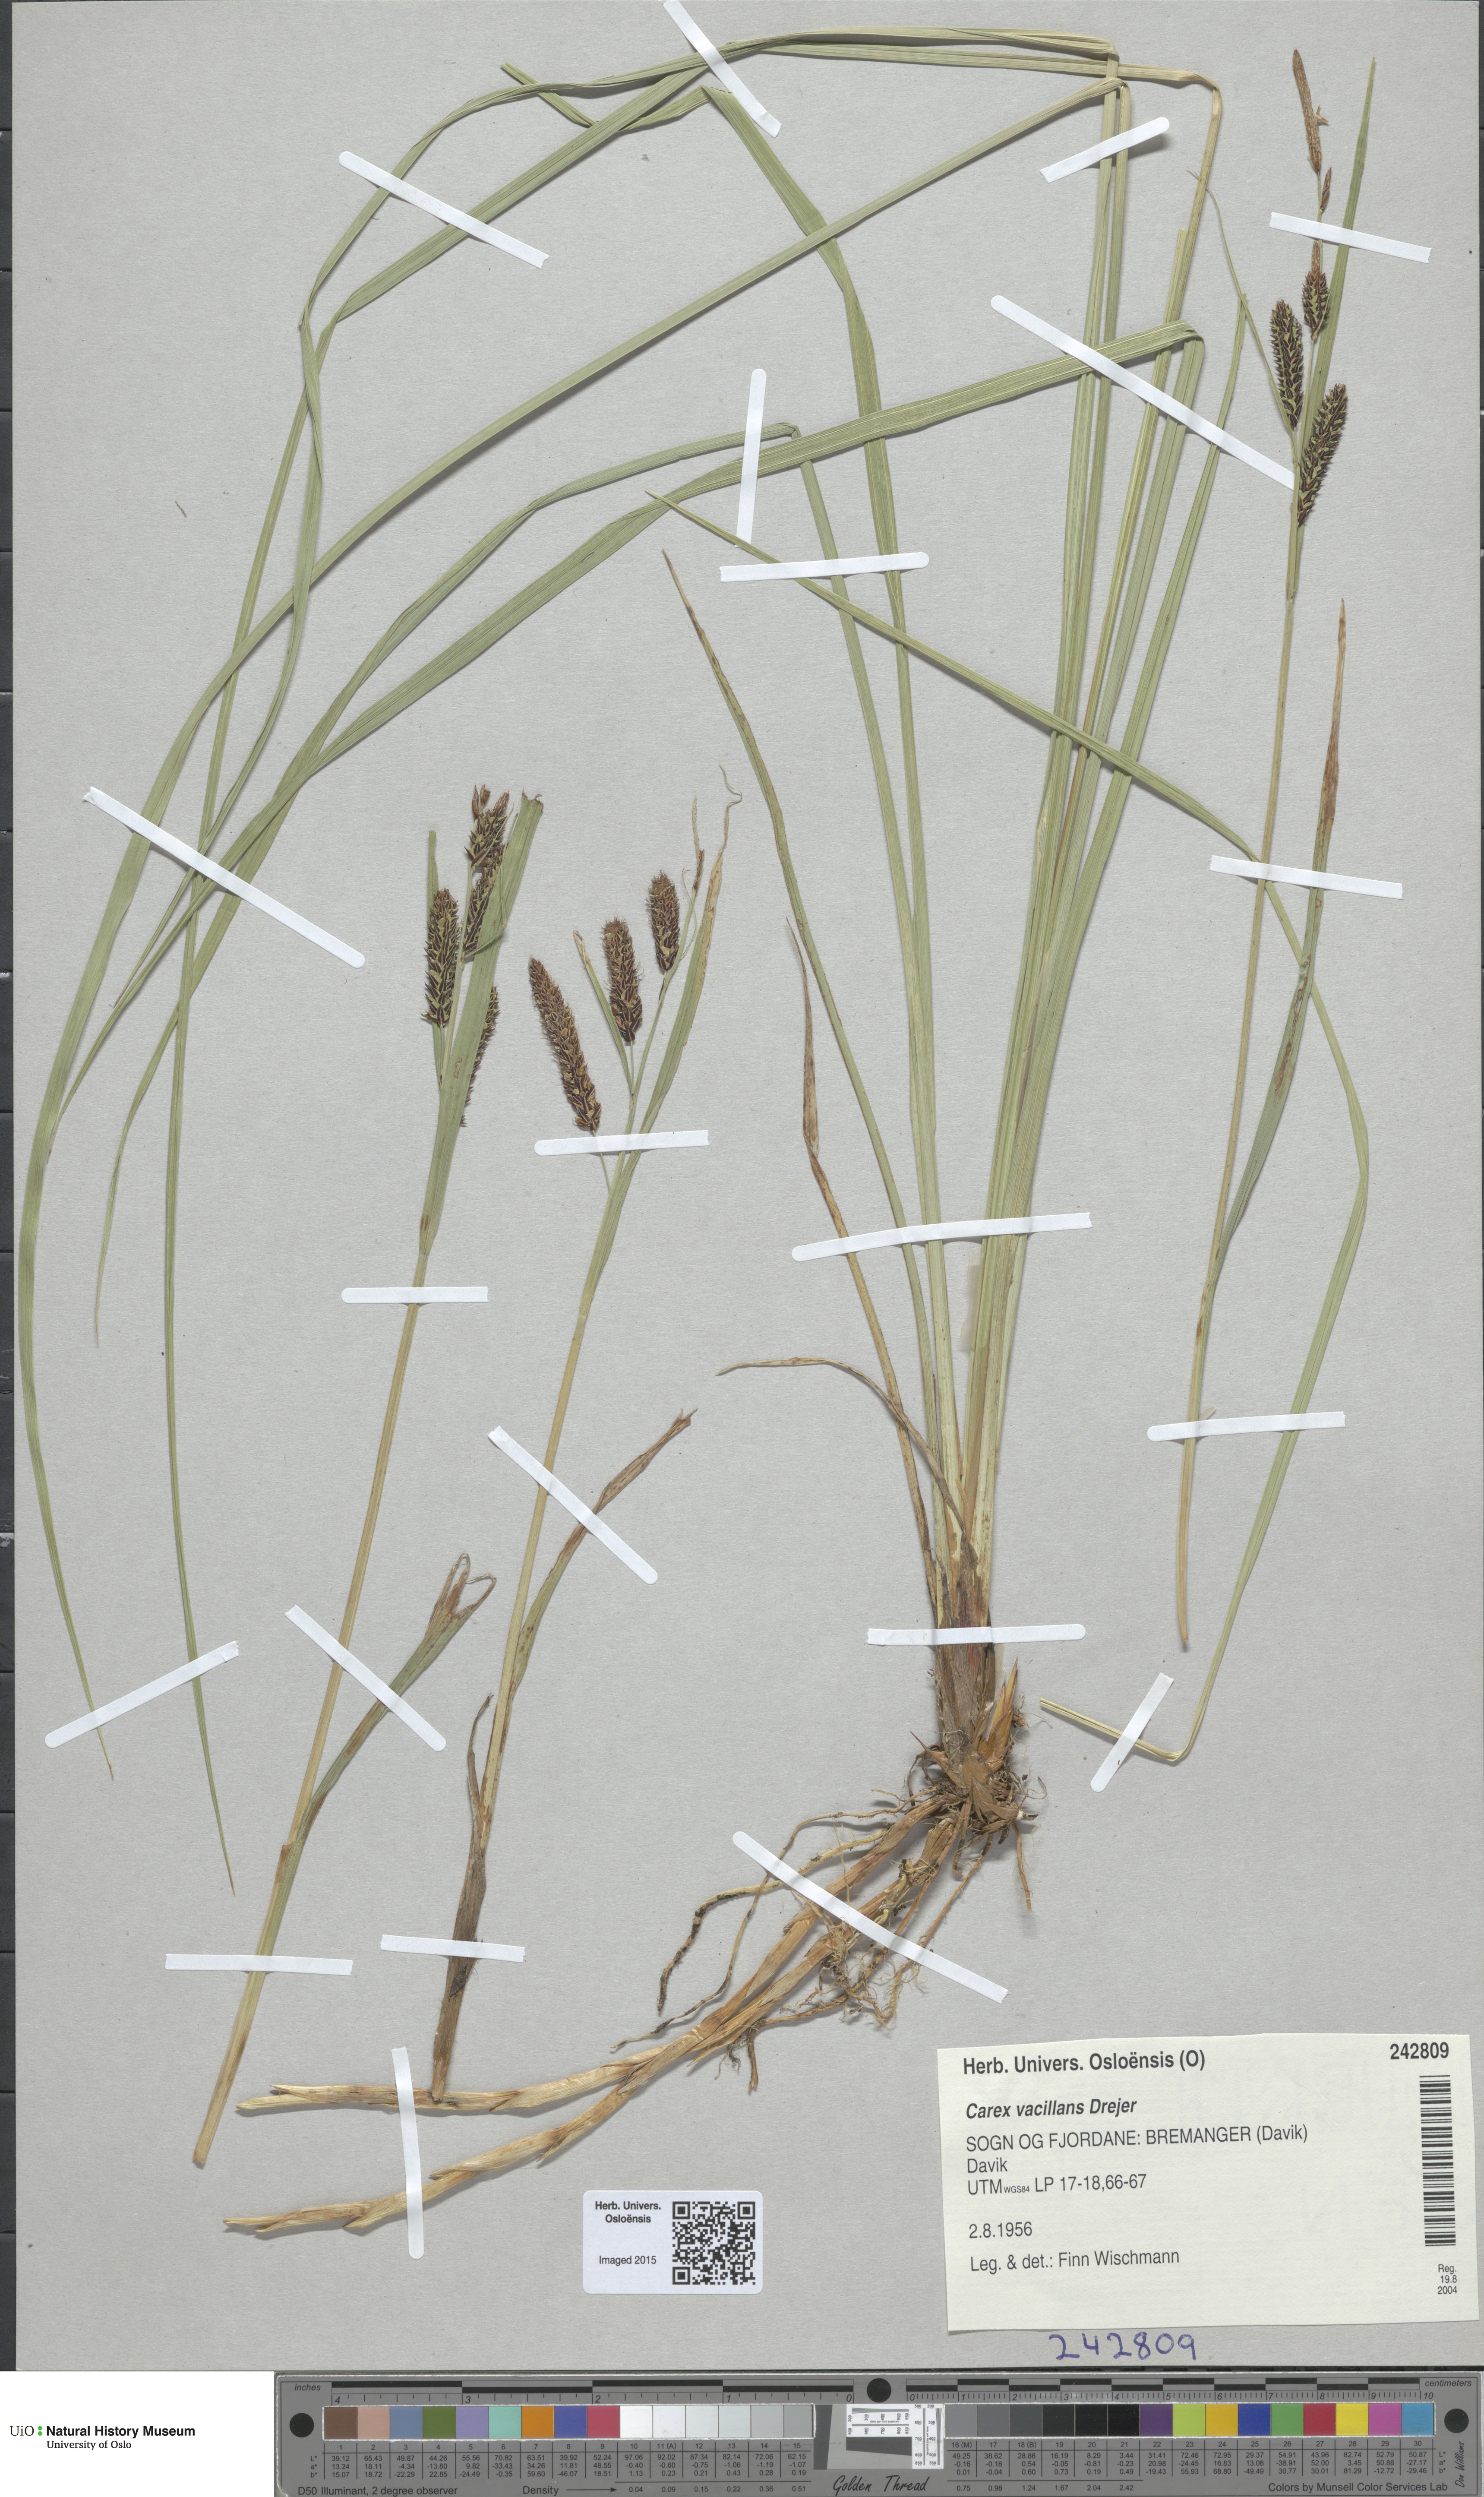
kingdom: Plantae
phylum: Tracheophyta
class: Liliopsida
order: Poales
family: Cyperaceae
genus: Carex
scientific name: Carex vacillans
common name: Sedge
